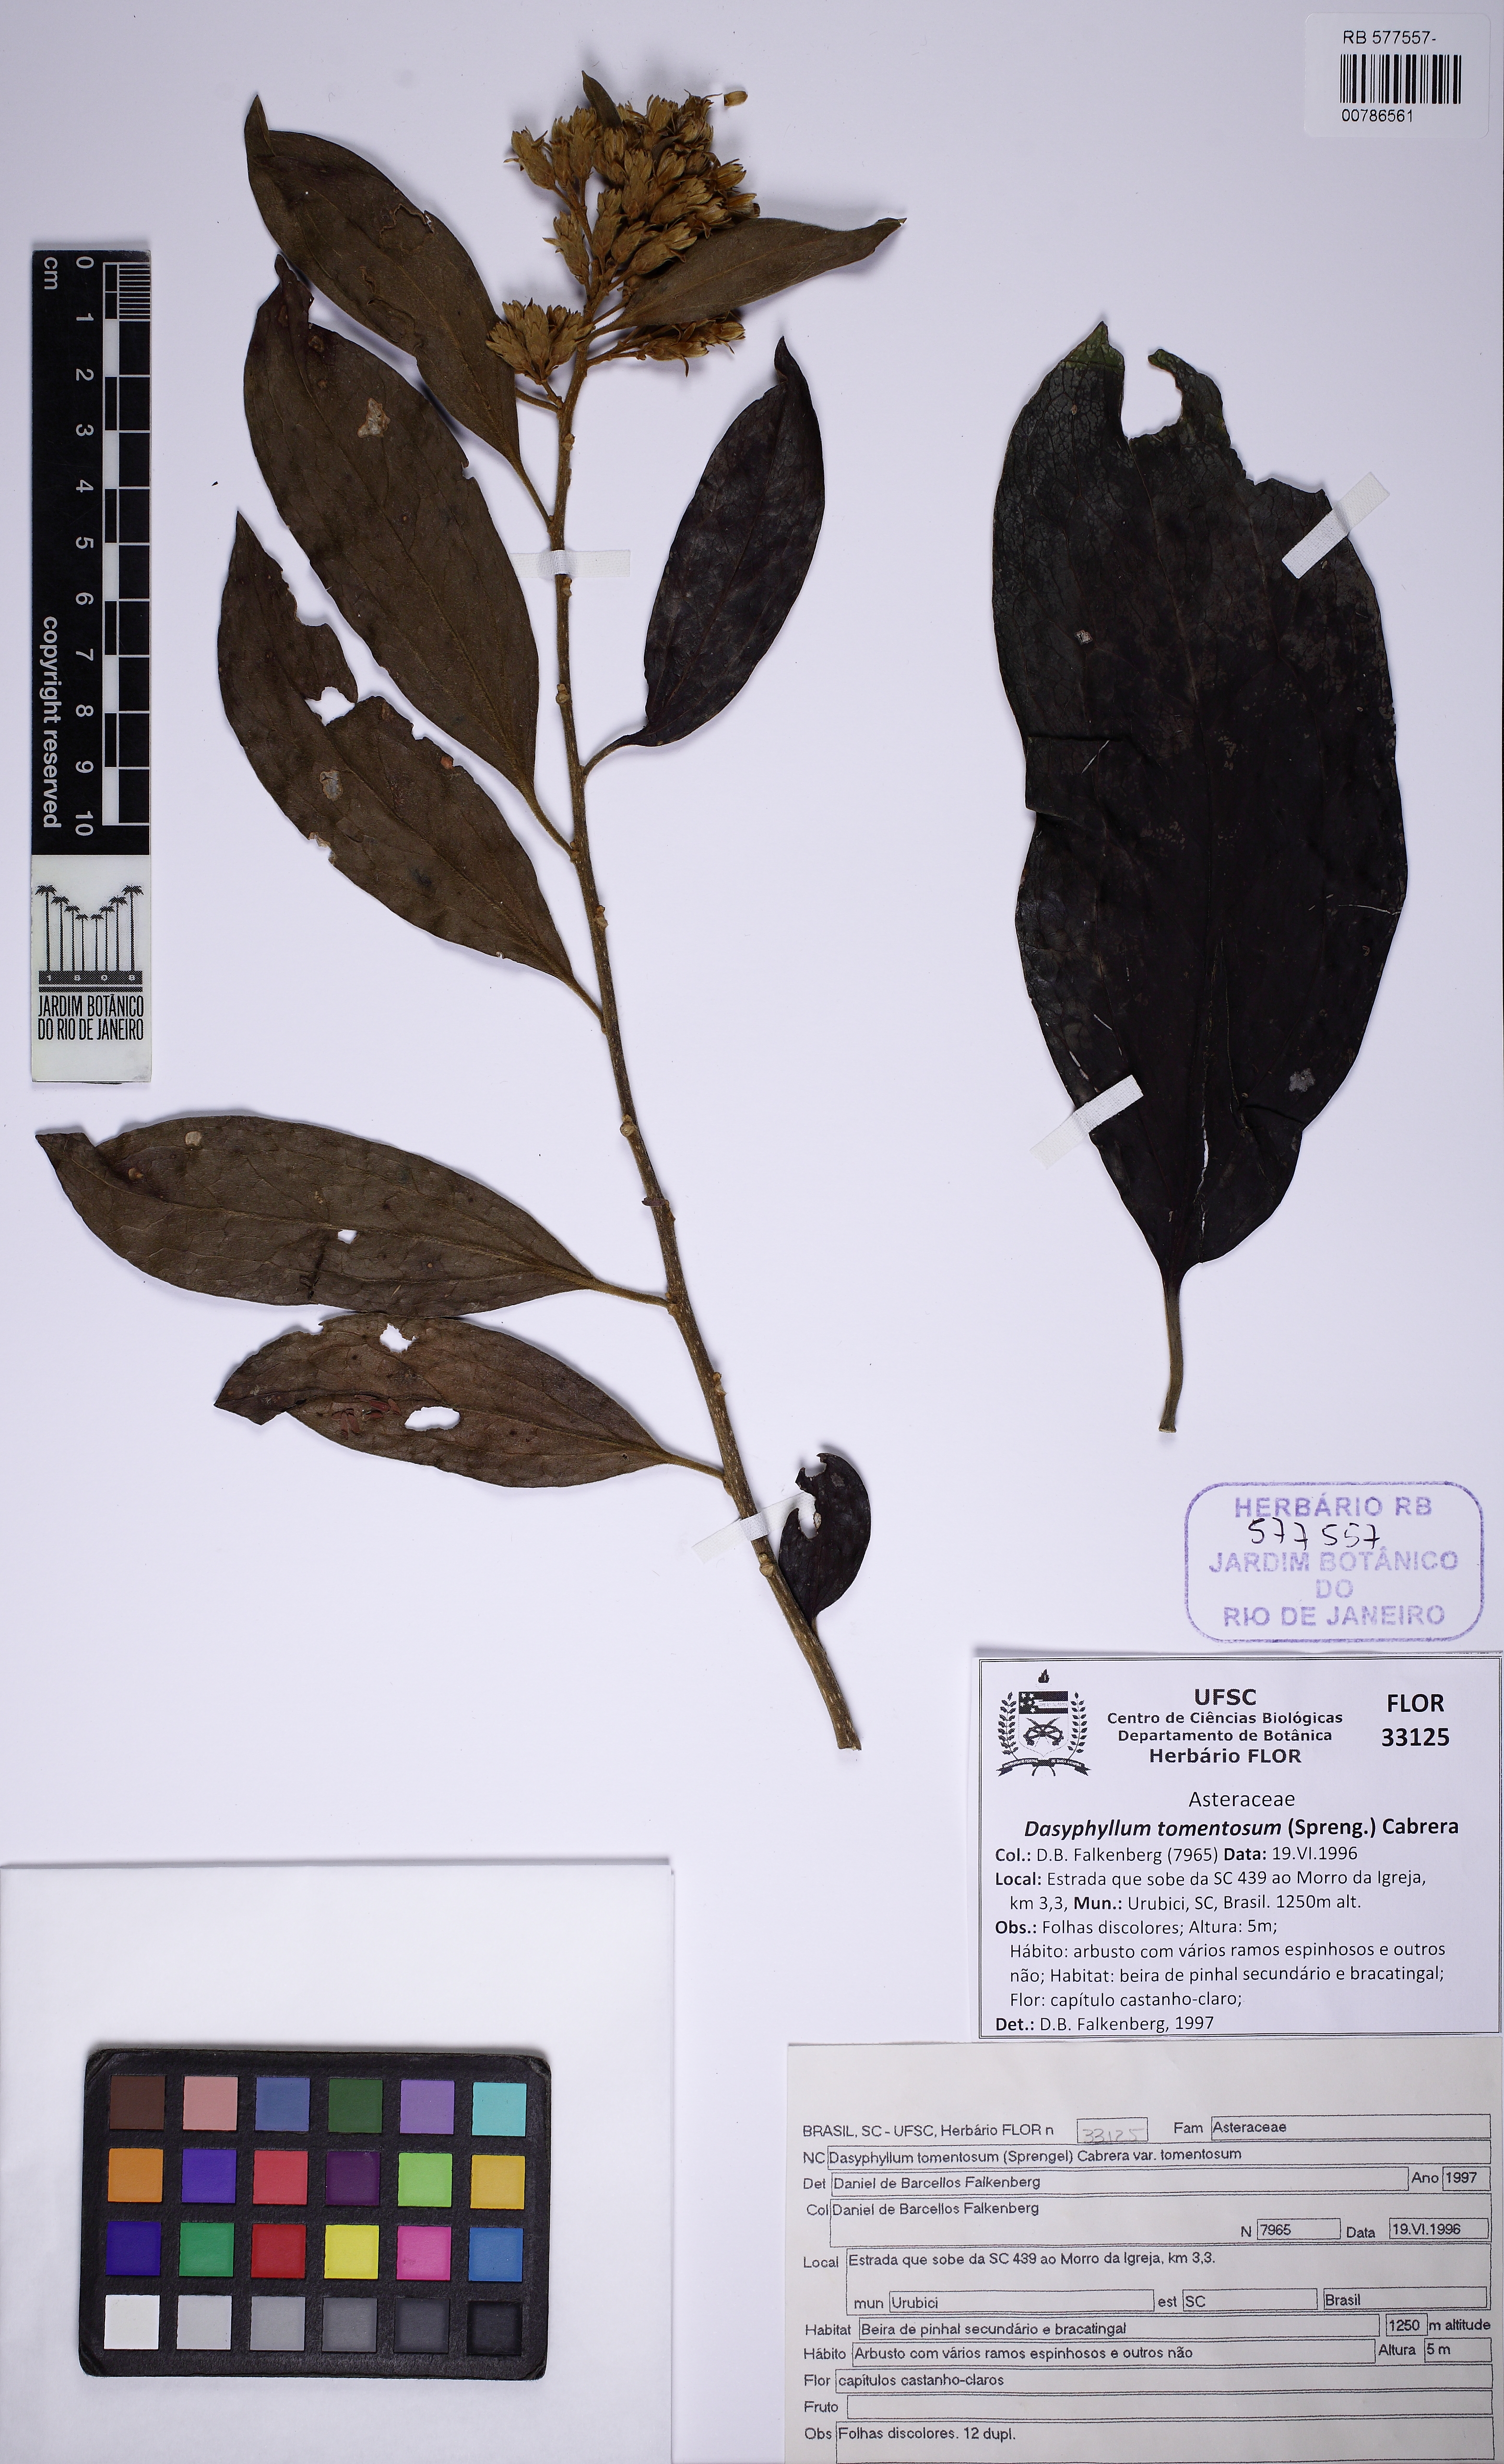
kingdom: Plantae
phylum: Tracheophyta
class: Magnoliopsida
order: Asterales
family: Asteraceae
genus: Dasyphyllum
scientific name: Dasyphyllum brasiliense
